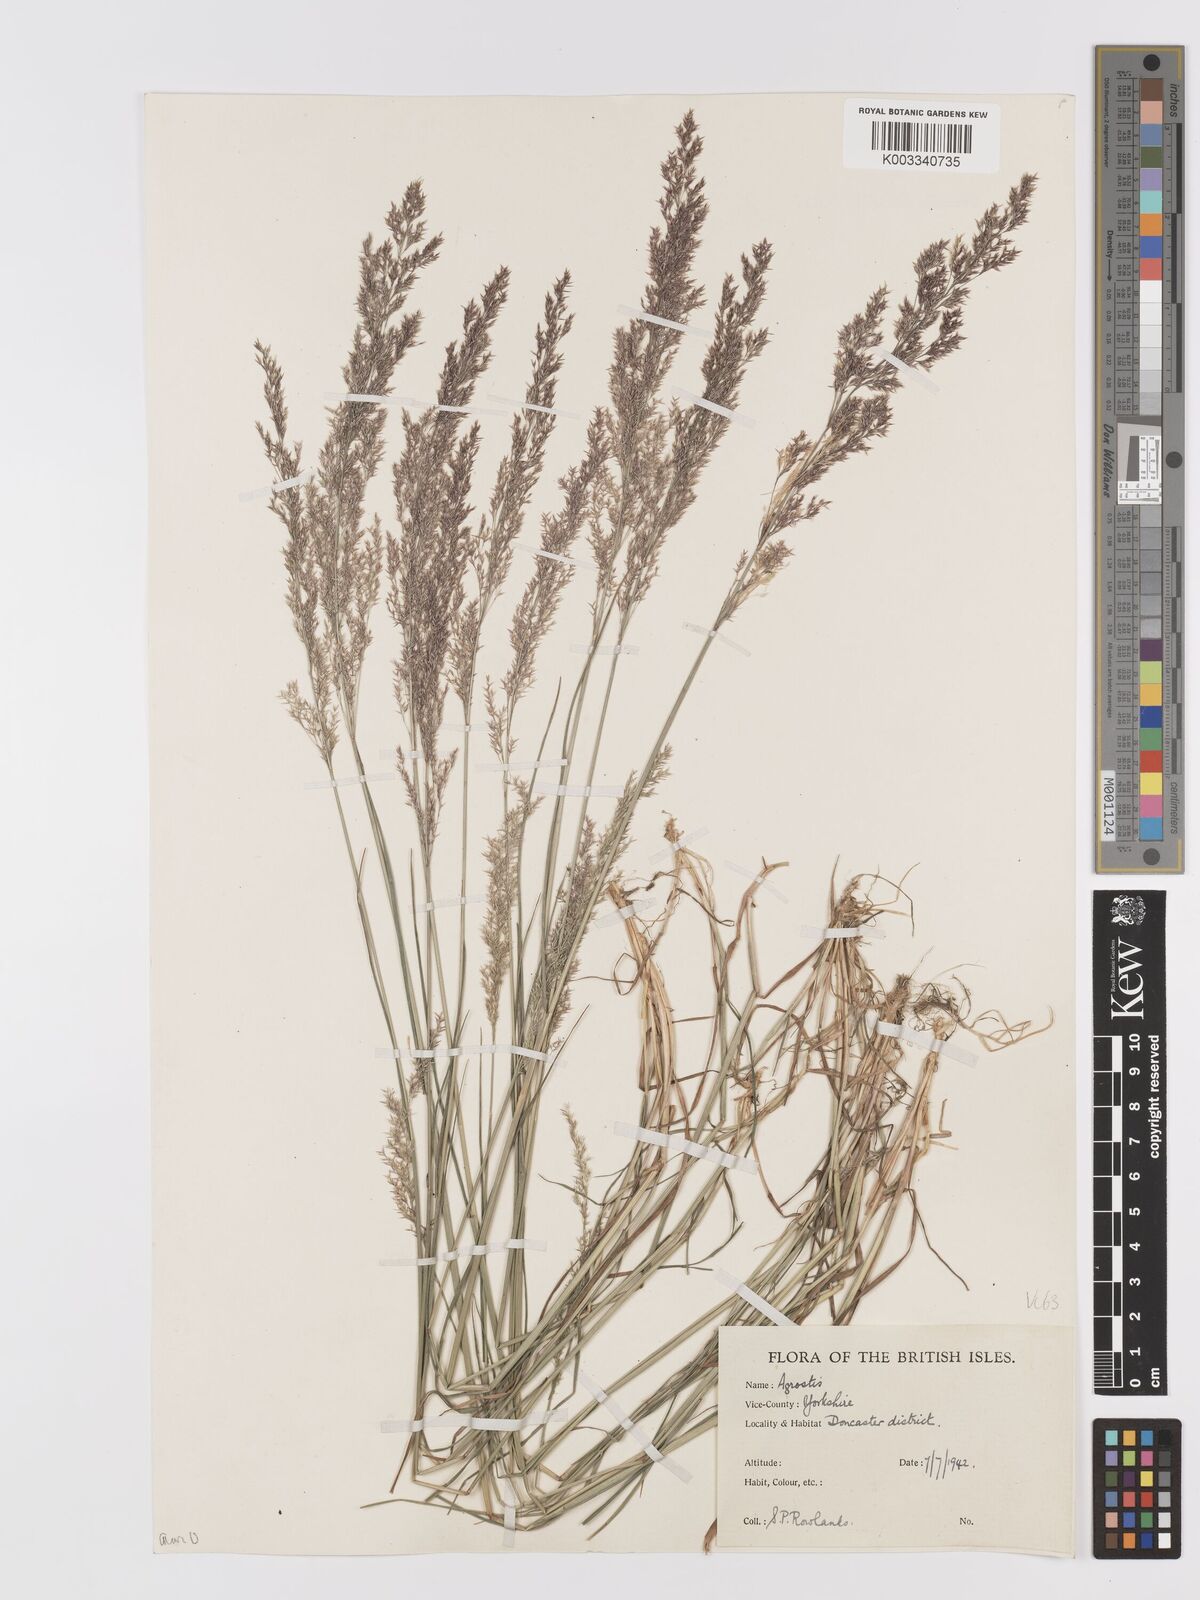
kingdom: Plantae
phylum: Tracheophyta
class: Liliopsida
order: Poales
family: Poaceae
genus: Agrostis
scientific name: Agrostis capillaris
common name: Colonial bentgrass
